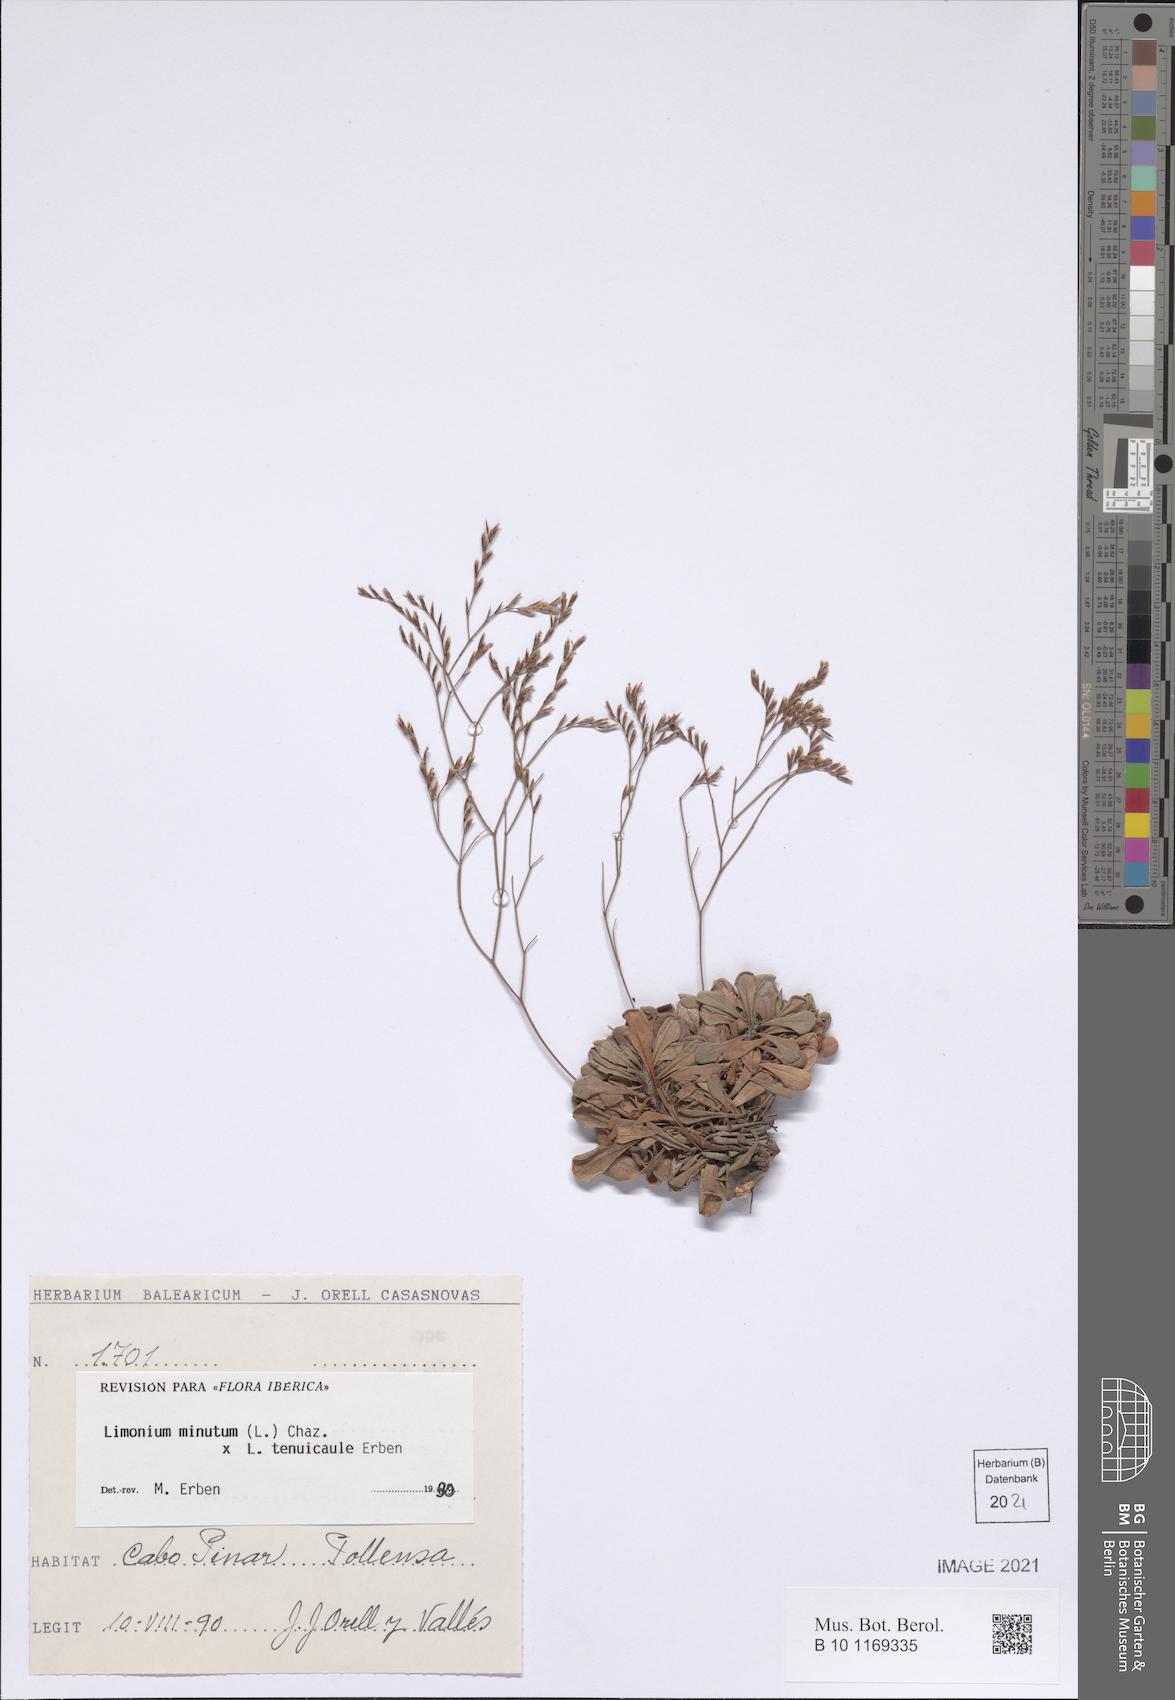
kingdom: Plantae
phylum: Tracheophyta
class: Magnoliopsida
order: Caryophyllales
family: Plumbaginaceae
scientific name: Plumbaginaceae
